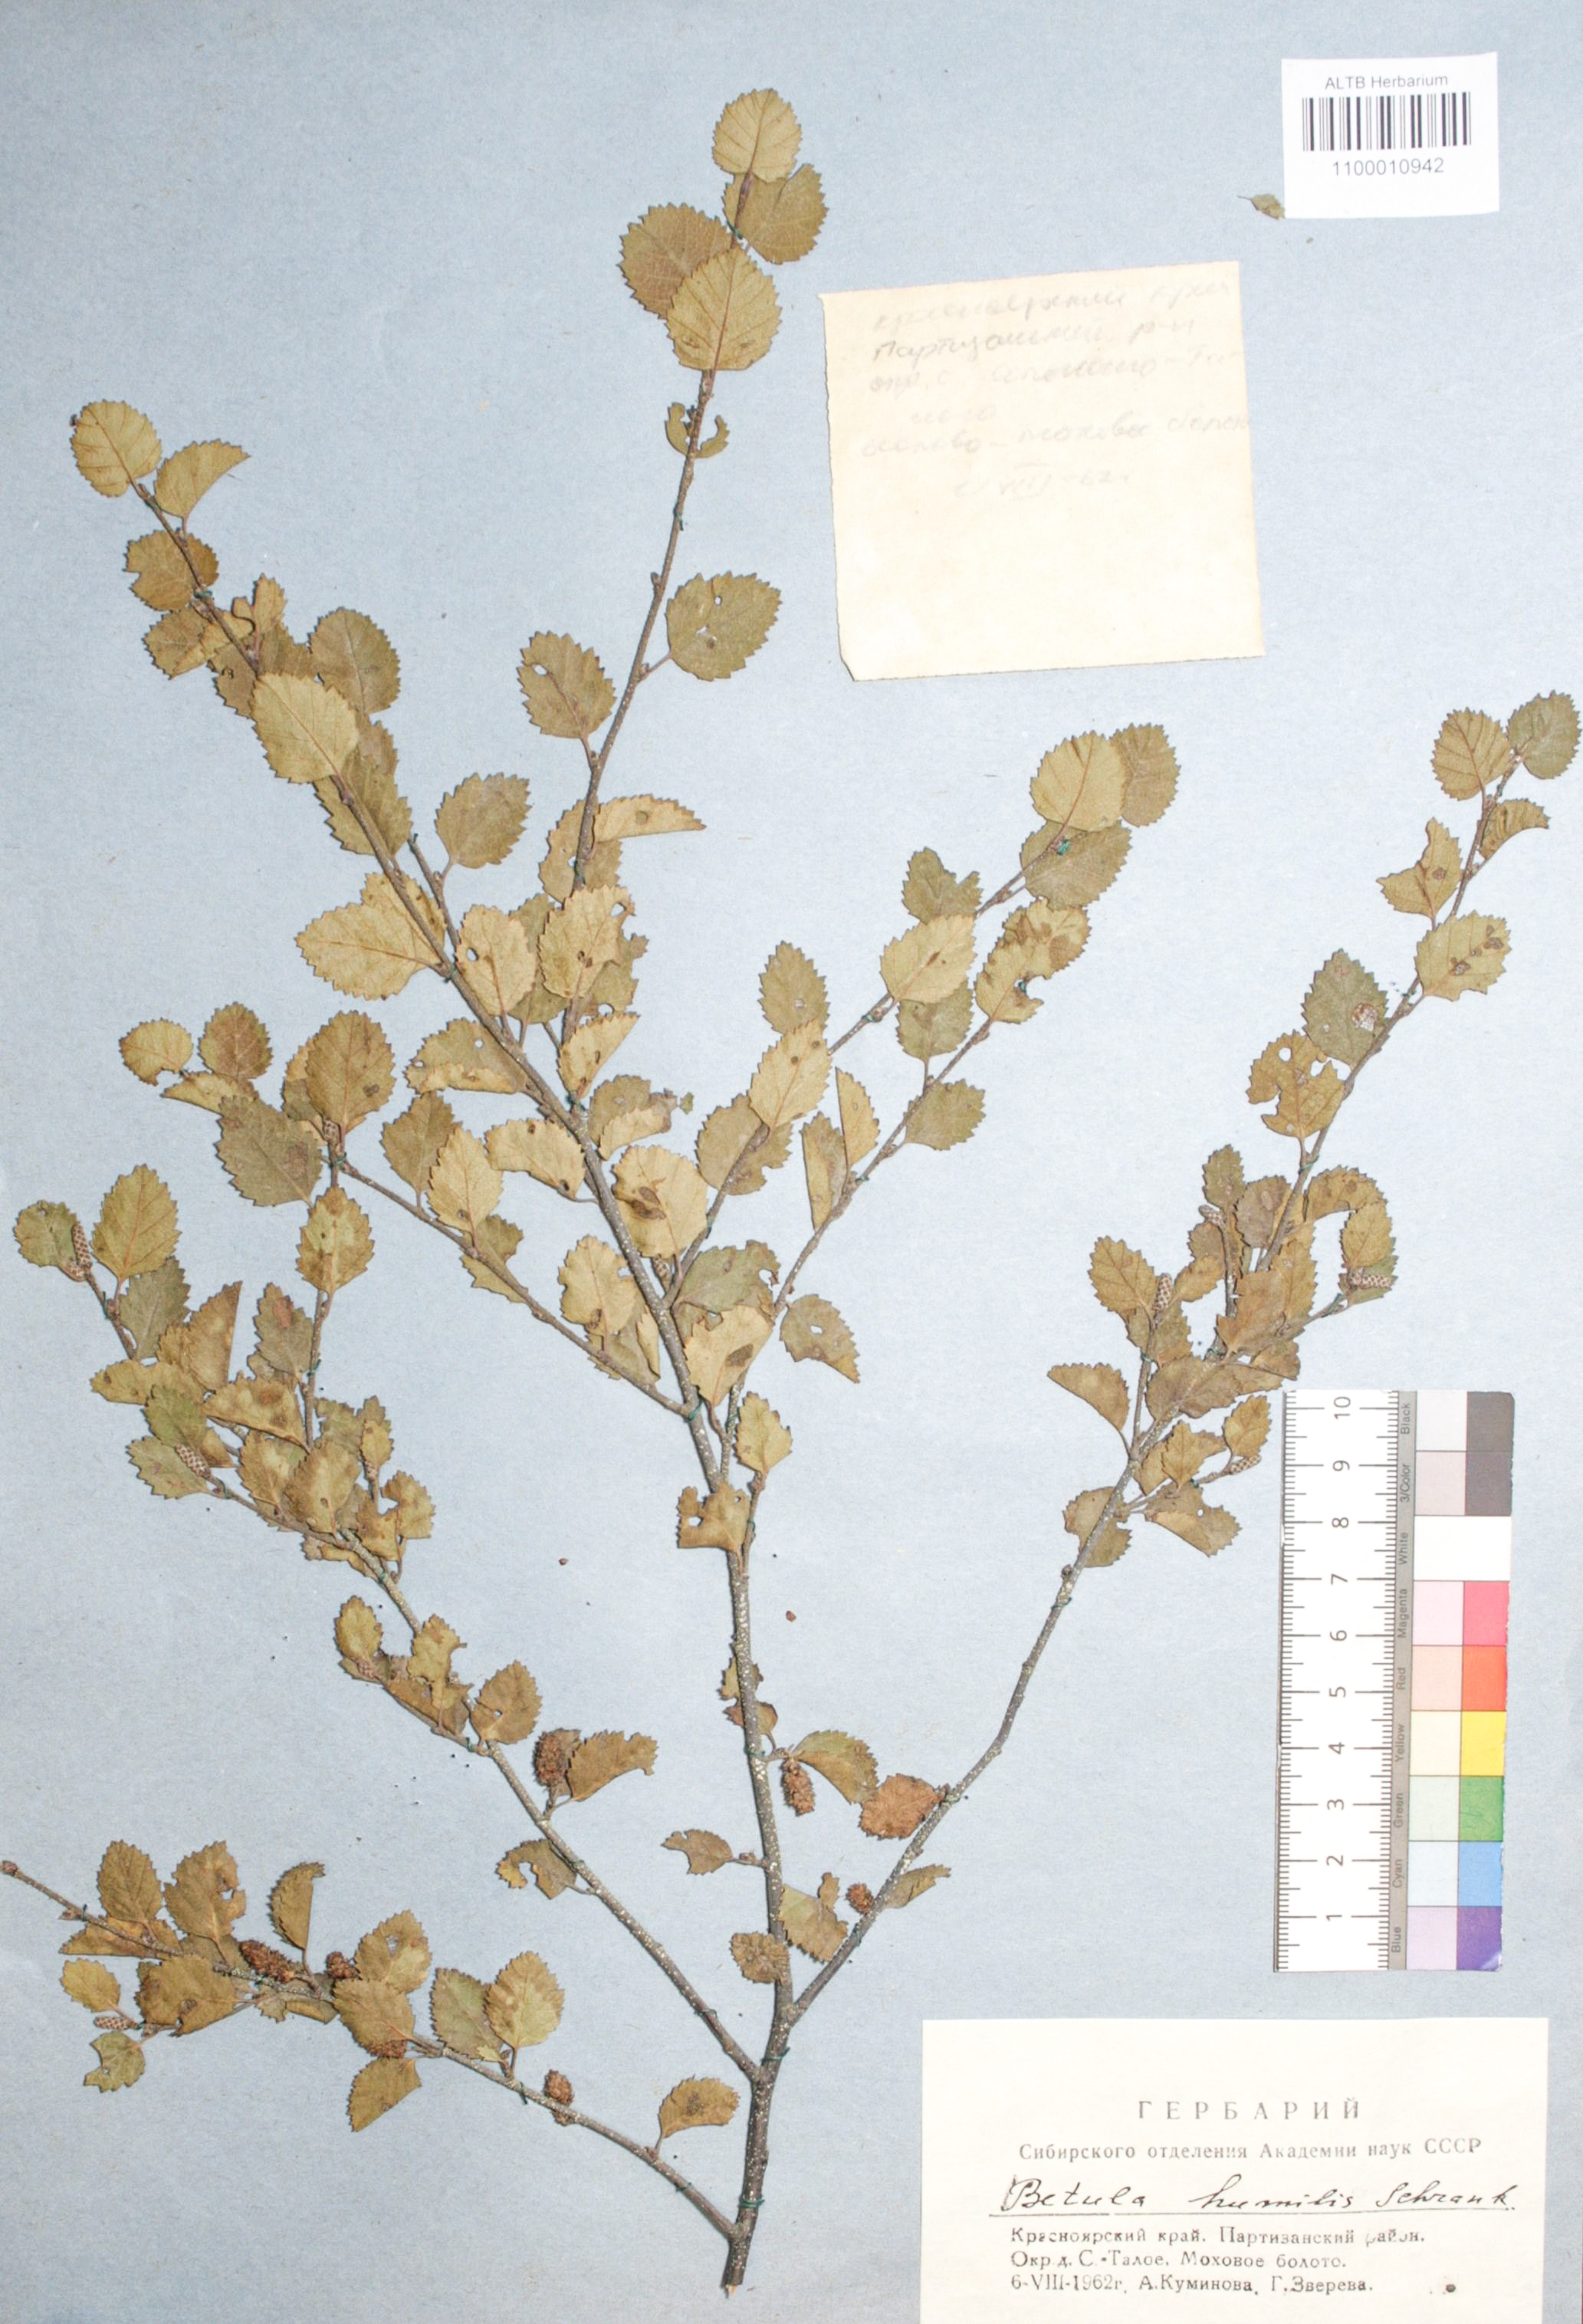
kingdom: Plantae
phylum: Tracheophyta
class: Magnoliopsida
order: Fagales
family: Betulaceae
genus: Betula
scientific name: Betula humilis
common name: Shrubby birch
